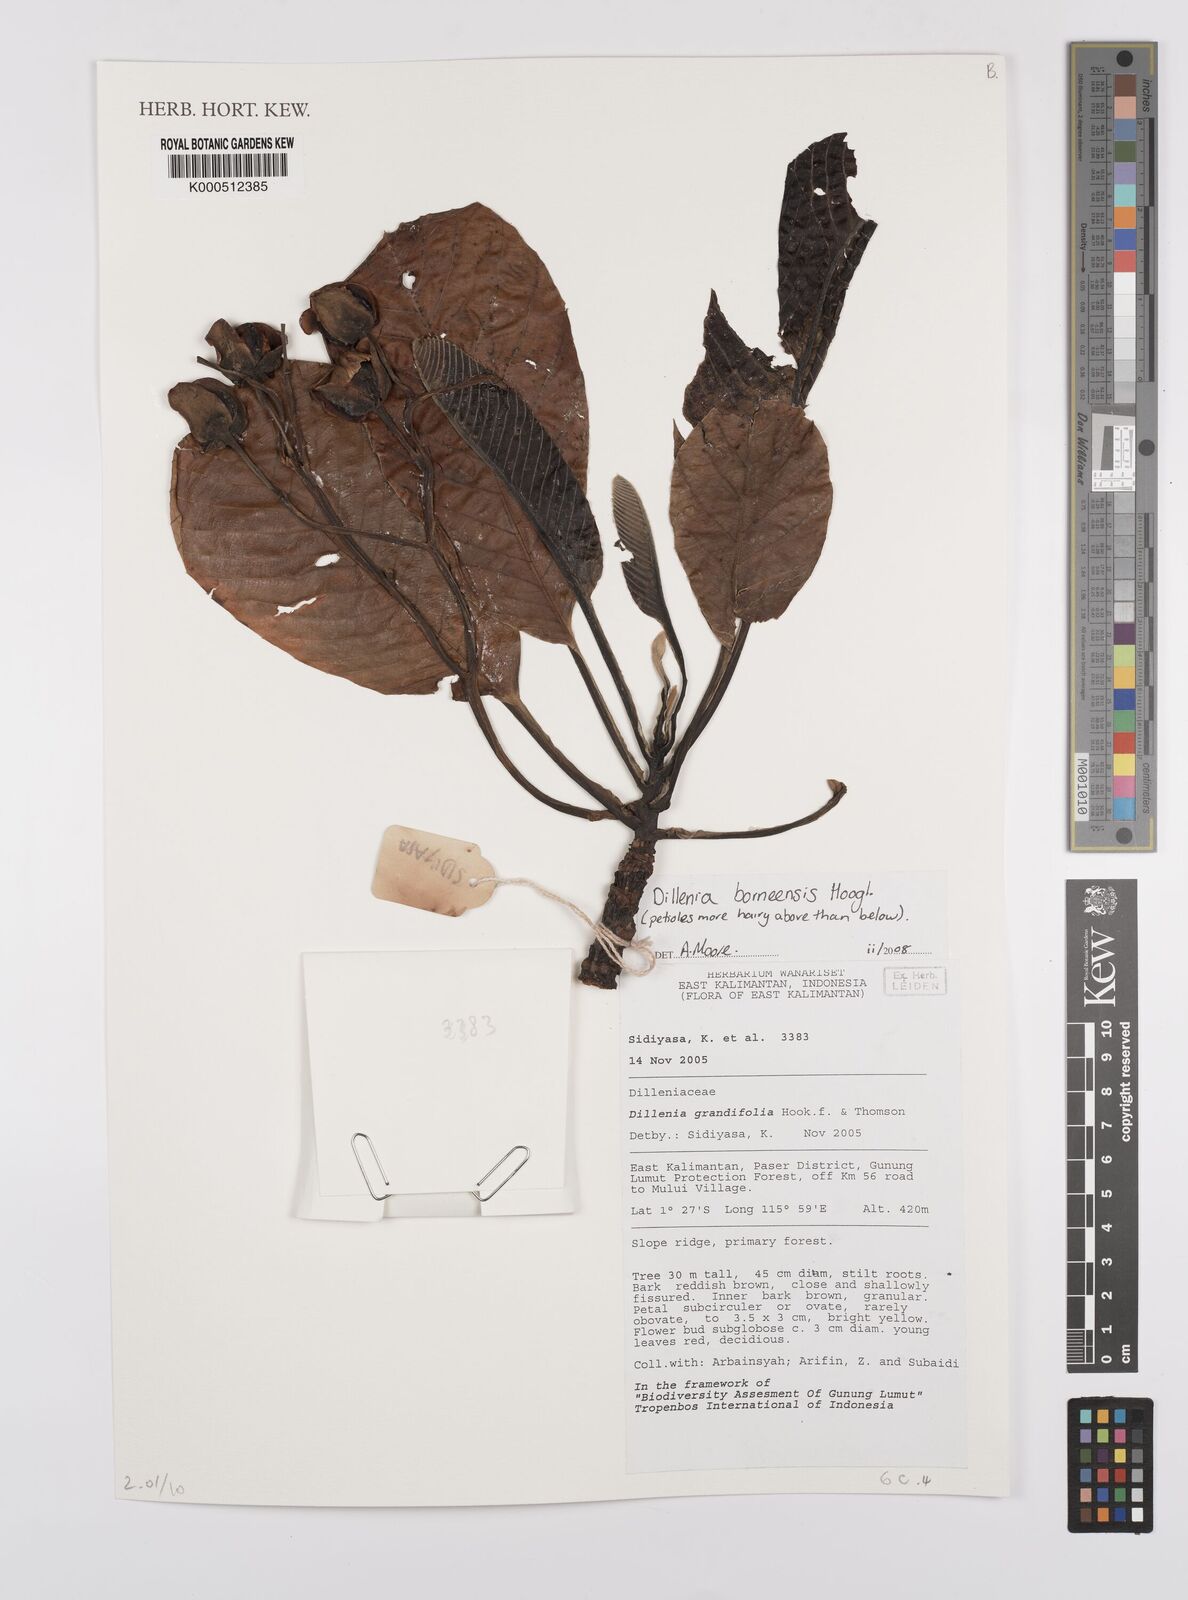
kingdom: Plantae
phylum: Tracheophyta
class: Magnoliopsida
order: Dilleniales
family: Dilleniaceae
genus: Dillenia
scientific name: Dillenia borneensis
